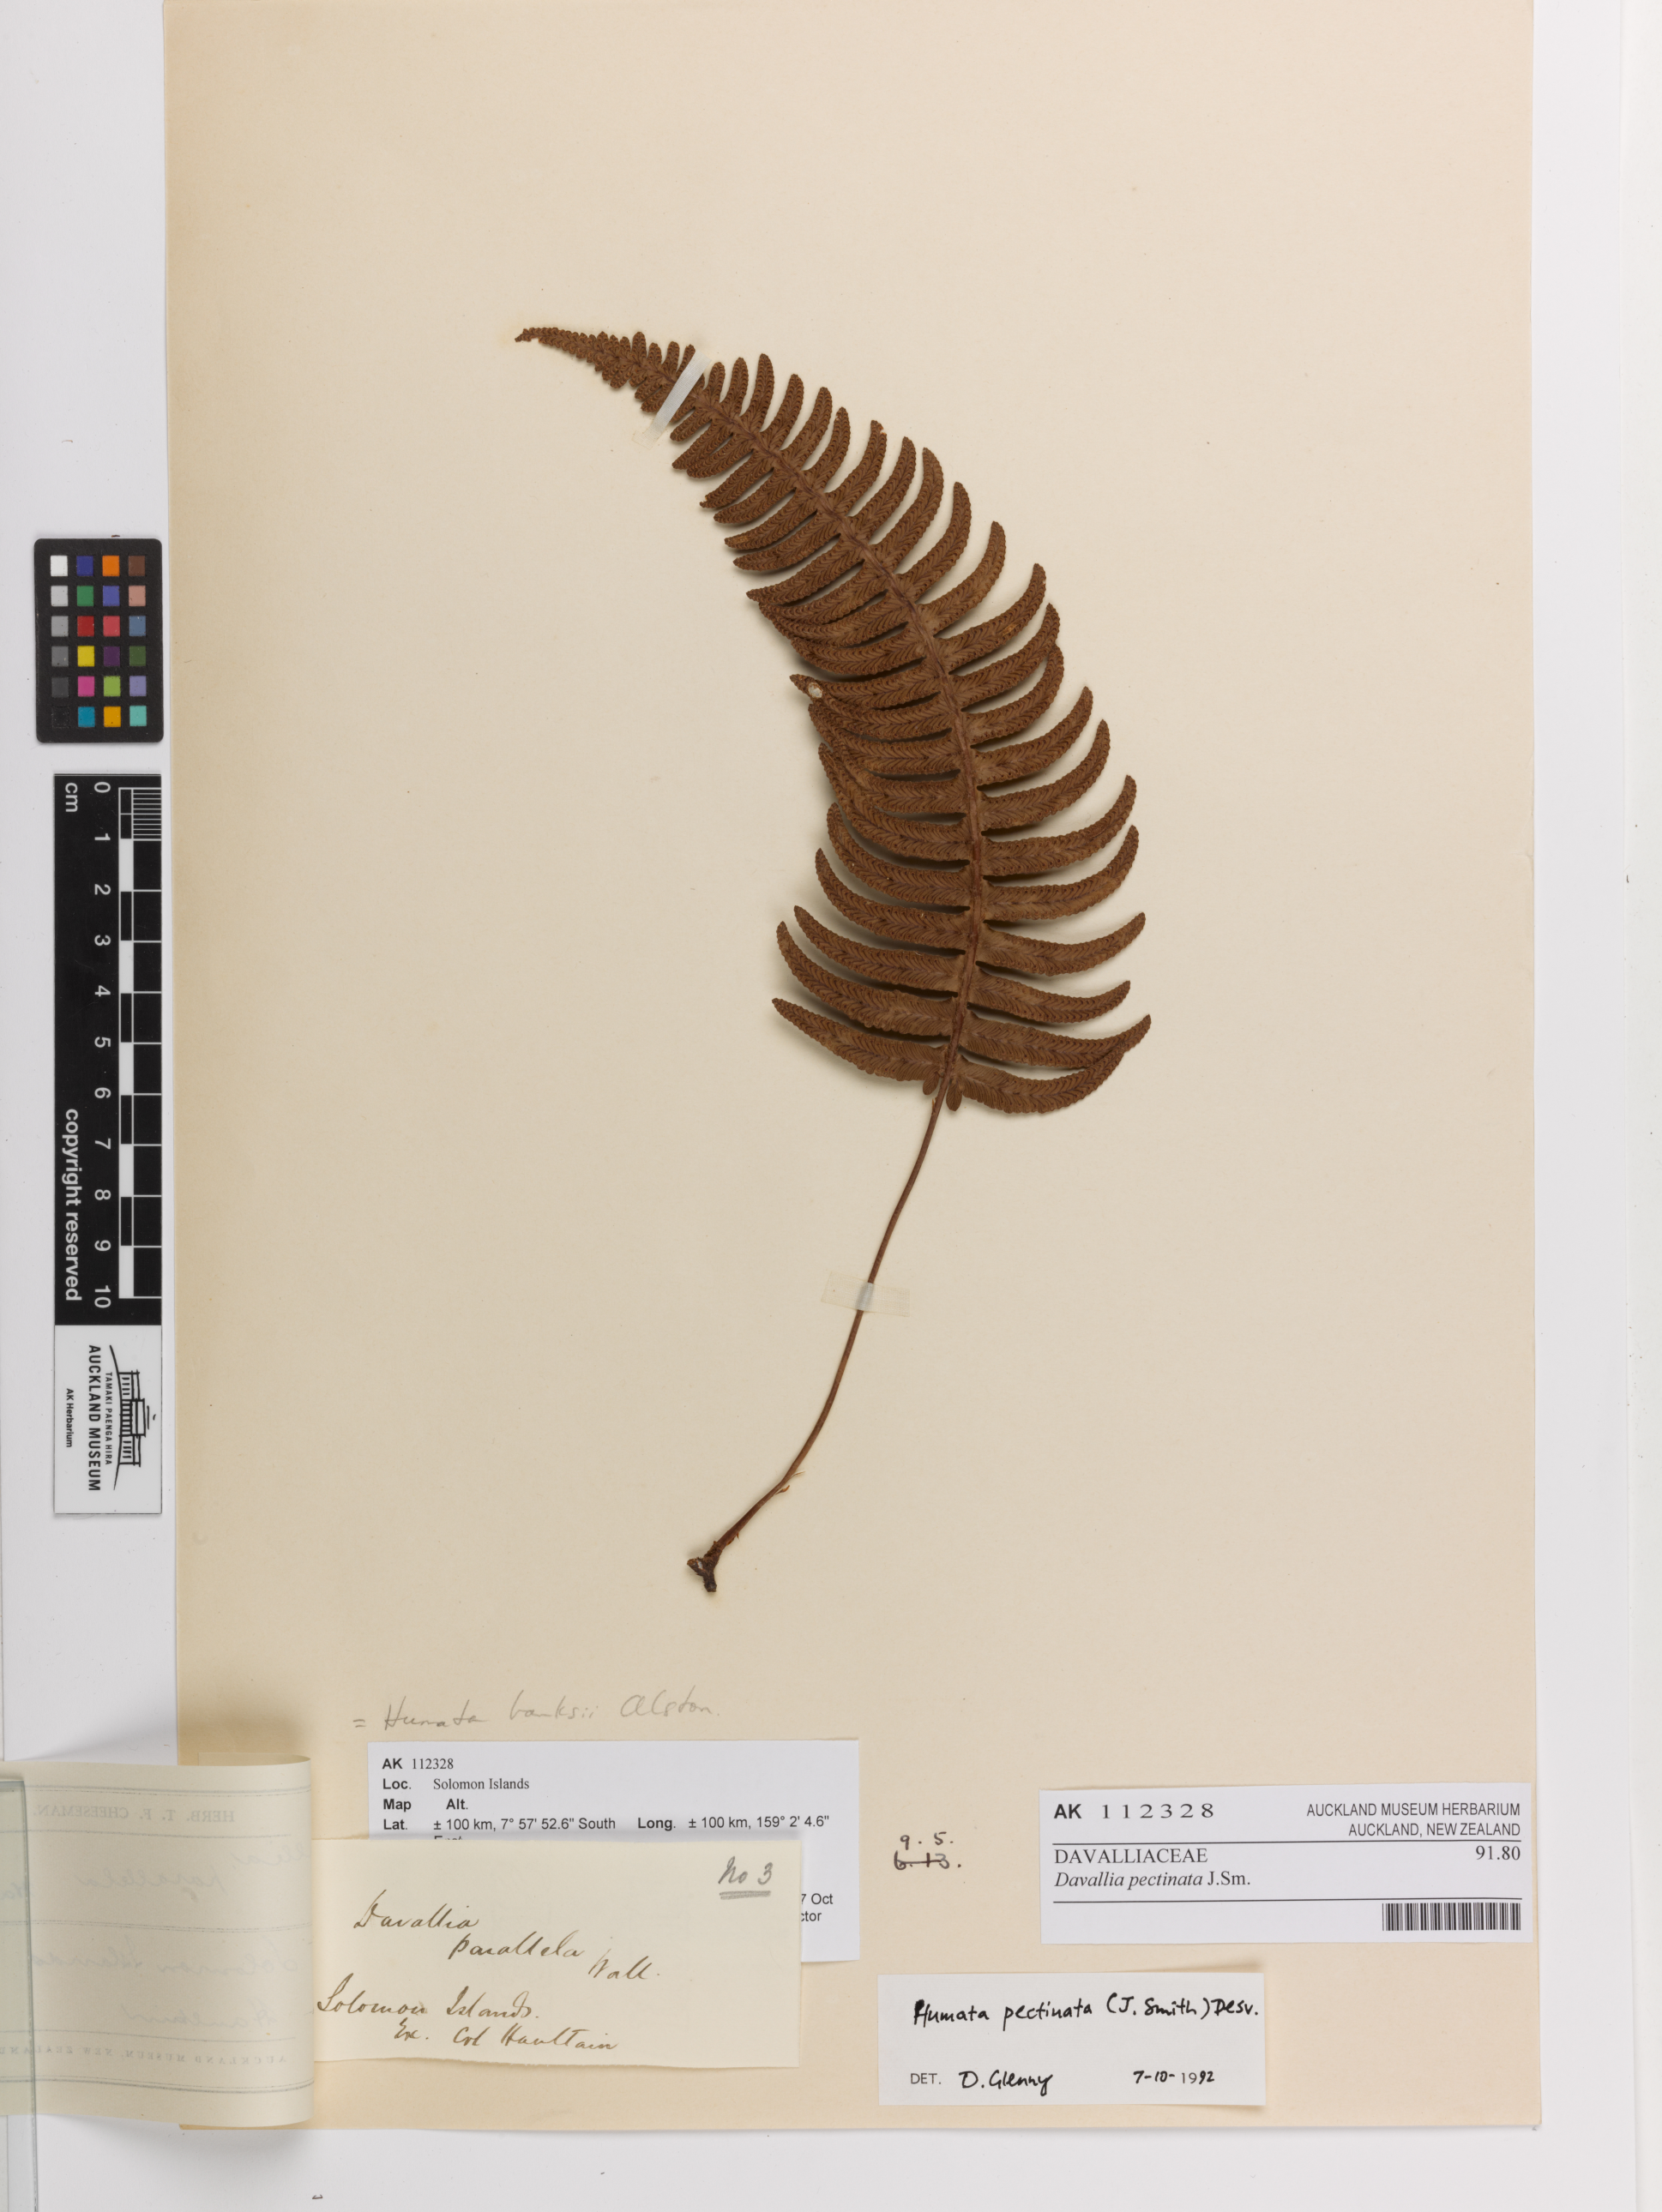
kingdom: Plantae
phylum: Tracheophyta
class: Polypodiopsida
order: Polypodiales
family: Davalliaceae
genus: Davallia
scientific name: Davallia pectinata
